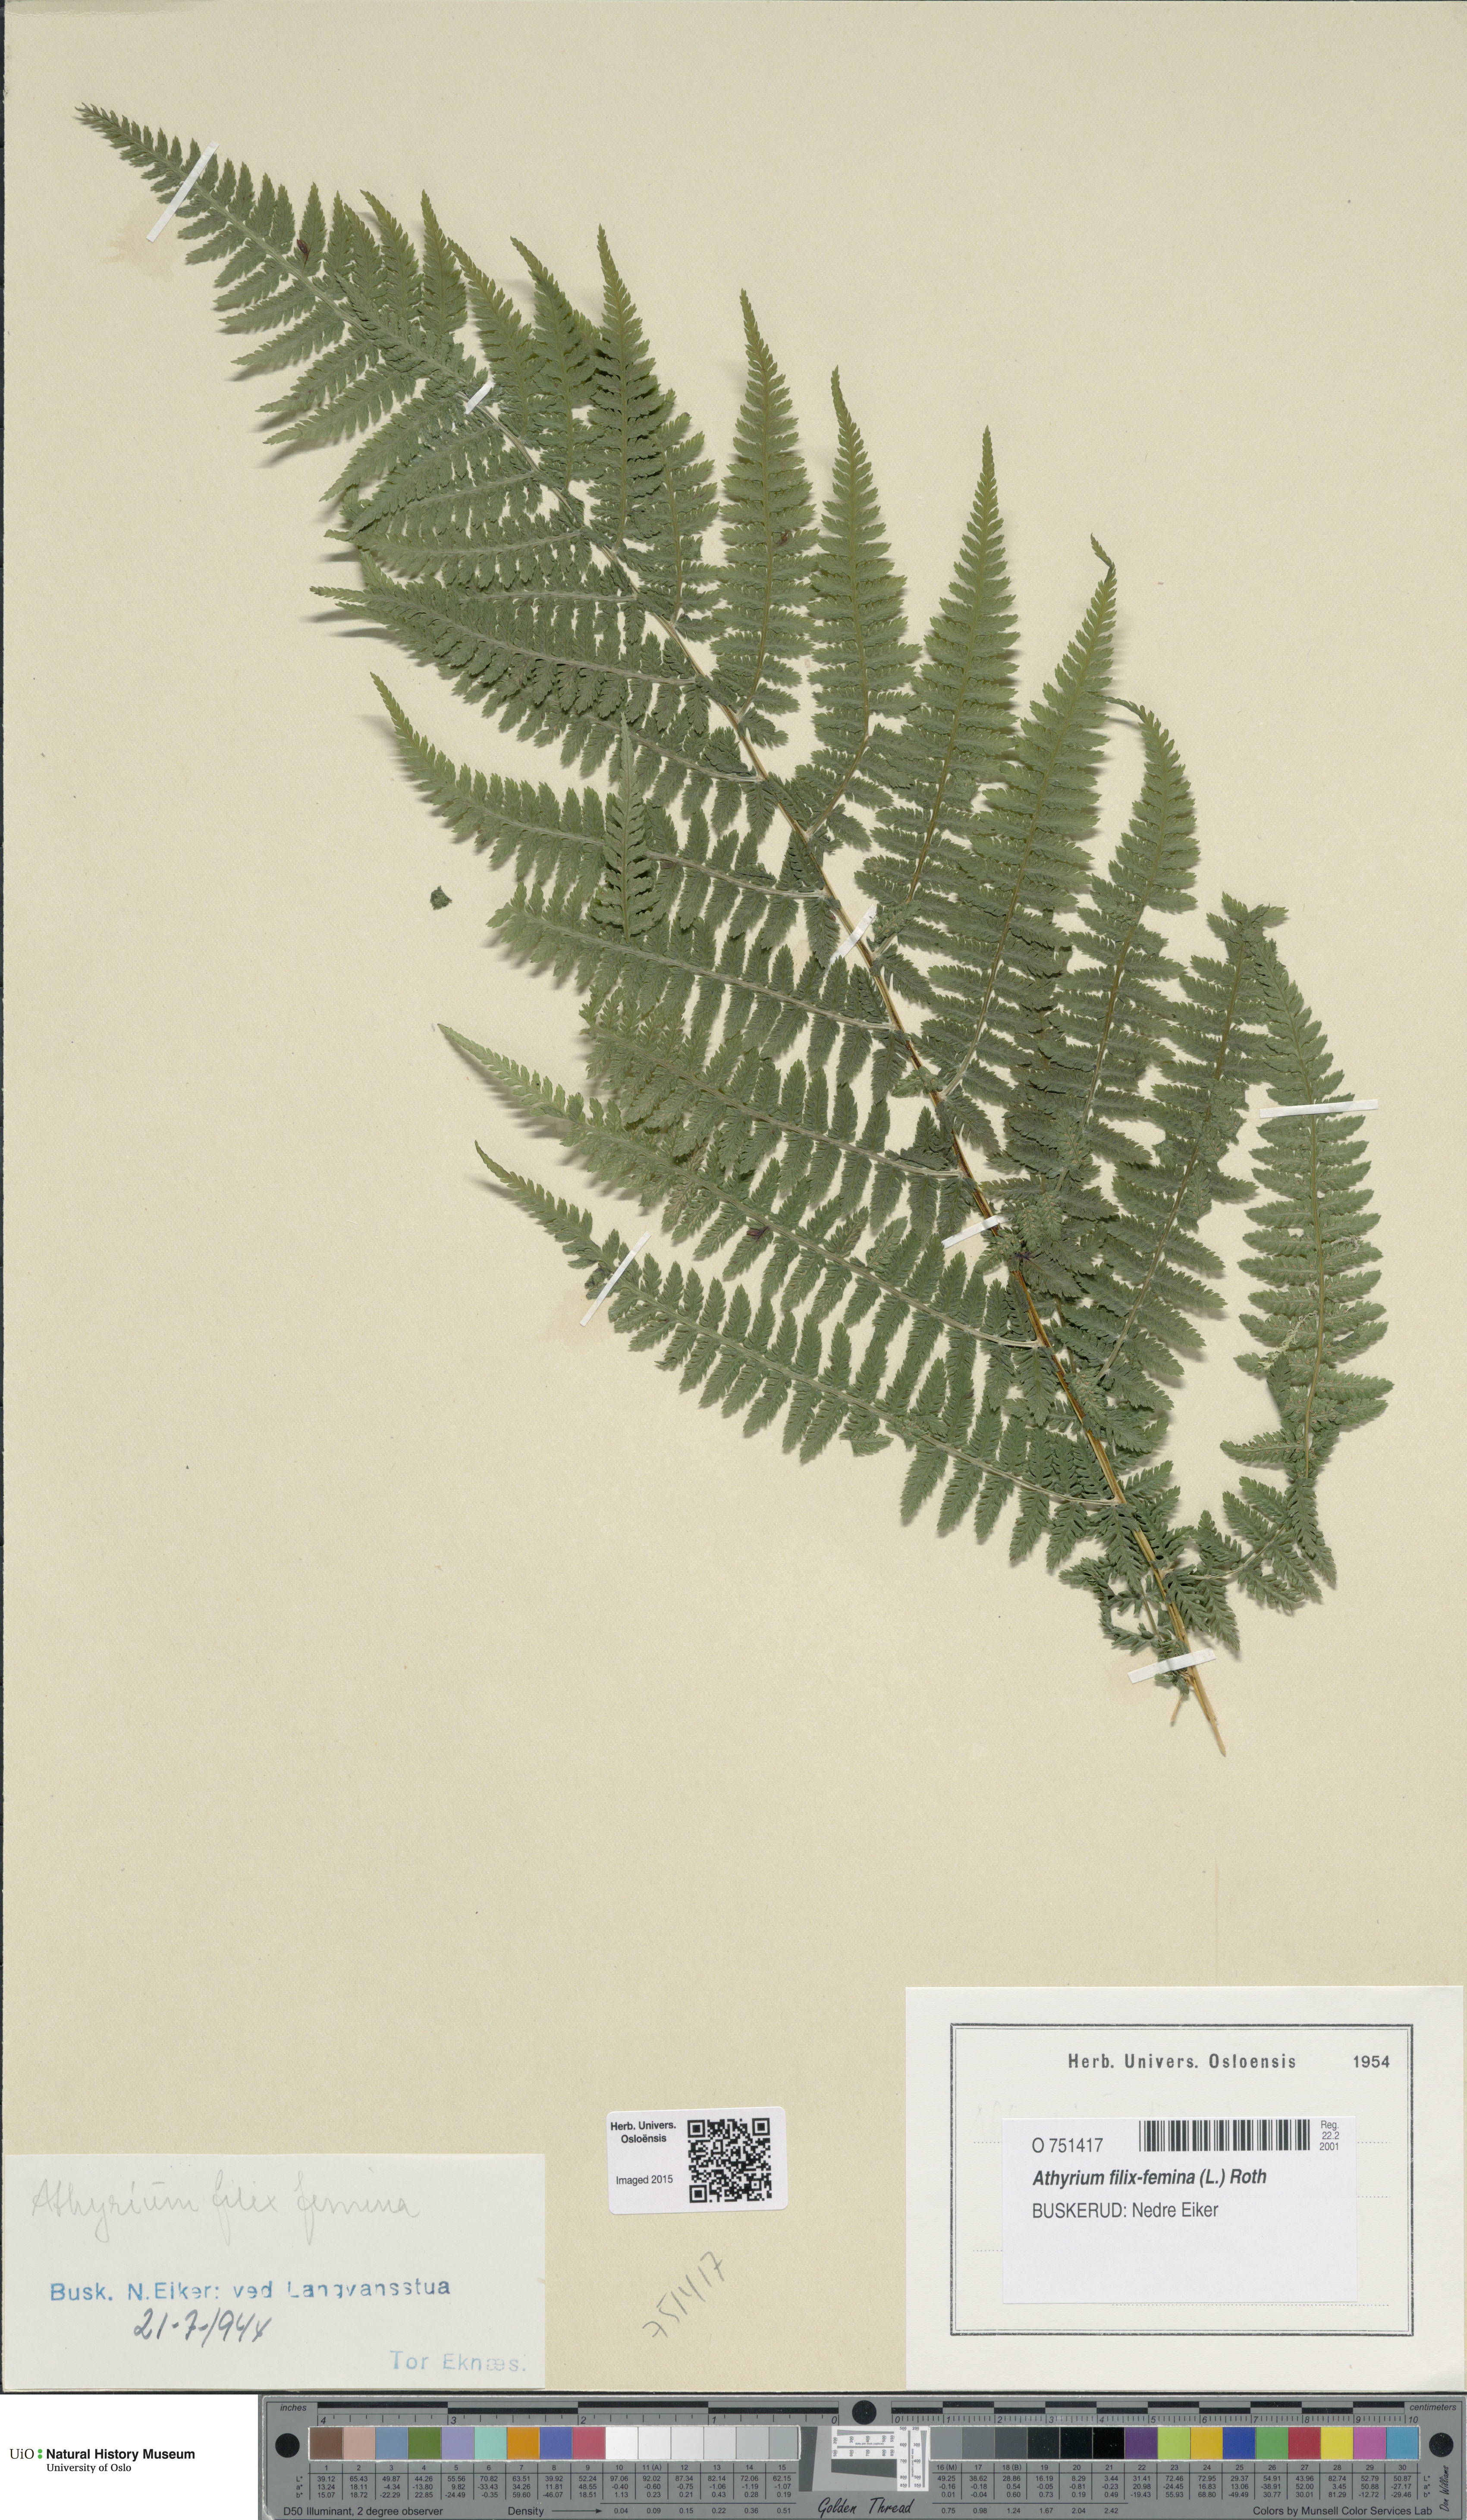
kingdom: Plantae
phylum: Tracheophyta
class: Polypodiopsida
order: Polypodiales
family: Athyriaceae
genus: Athyrium
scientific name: Athyrium filix-femina
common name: Lady fern
